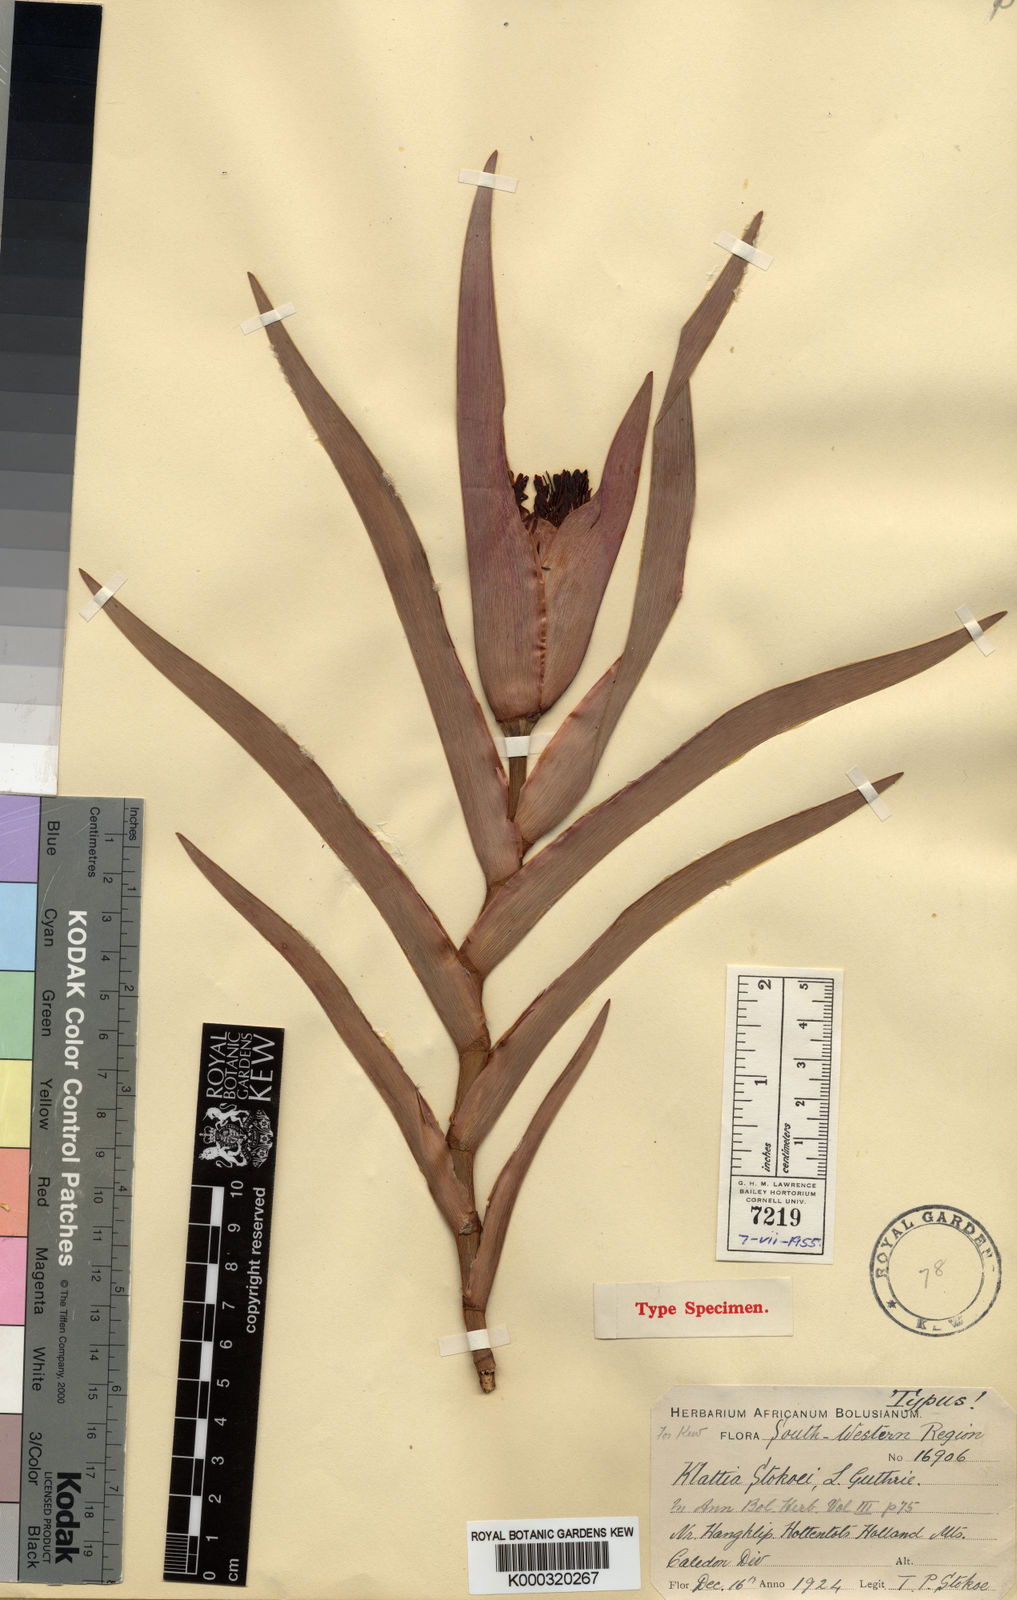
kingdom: Plantae
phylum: Tracheophyta
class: Liliopsida
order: Asparagales
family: Iridaceae
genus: Klattia
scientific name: Klattia stokoei
